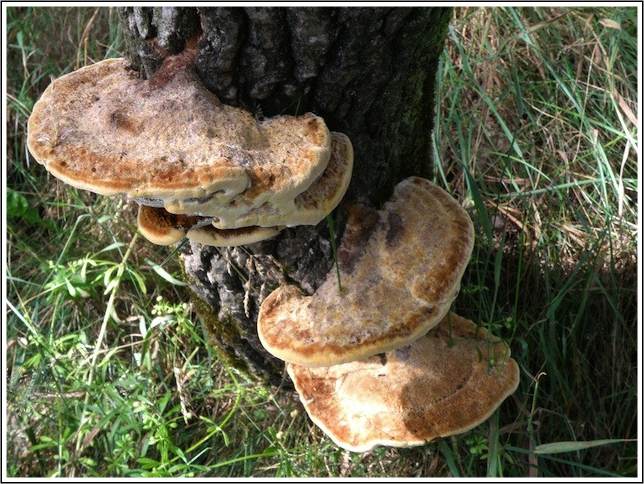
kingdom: Fungi
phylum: Basidiomycota
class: Agaricomycetes
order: Hymenochaetales
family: Hymenochaetaceae
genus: Inocutis
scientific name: Inocutis rheades
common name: ræve-spejlporesvamp
